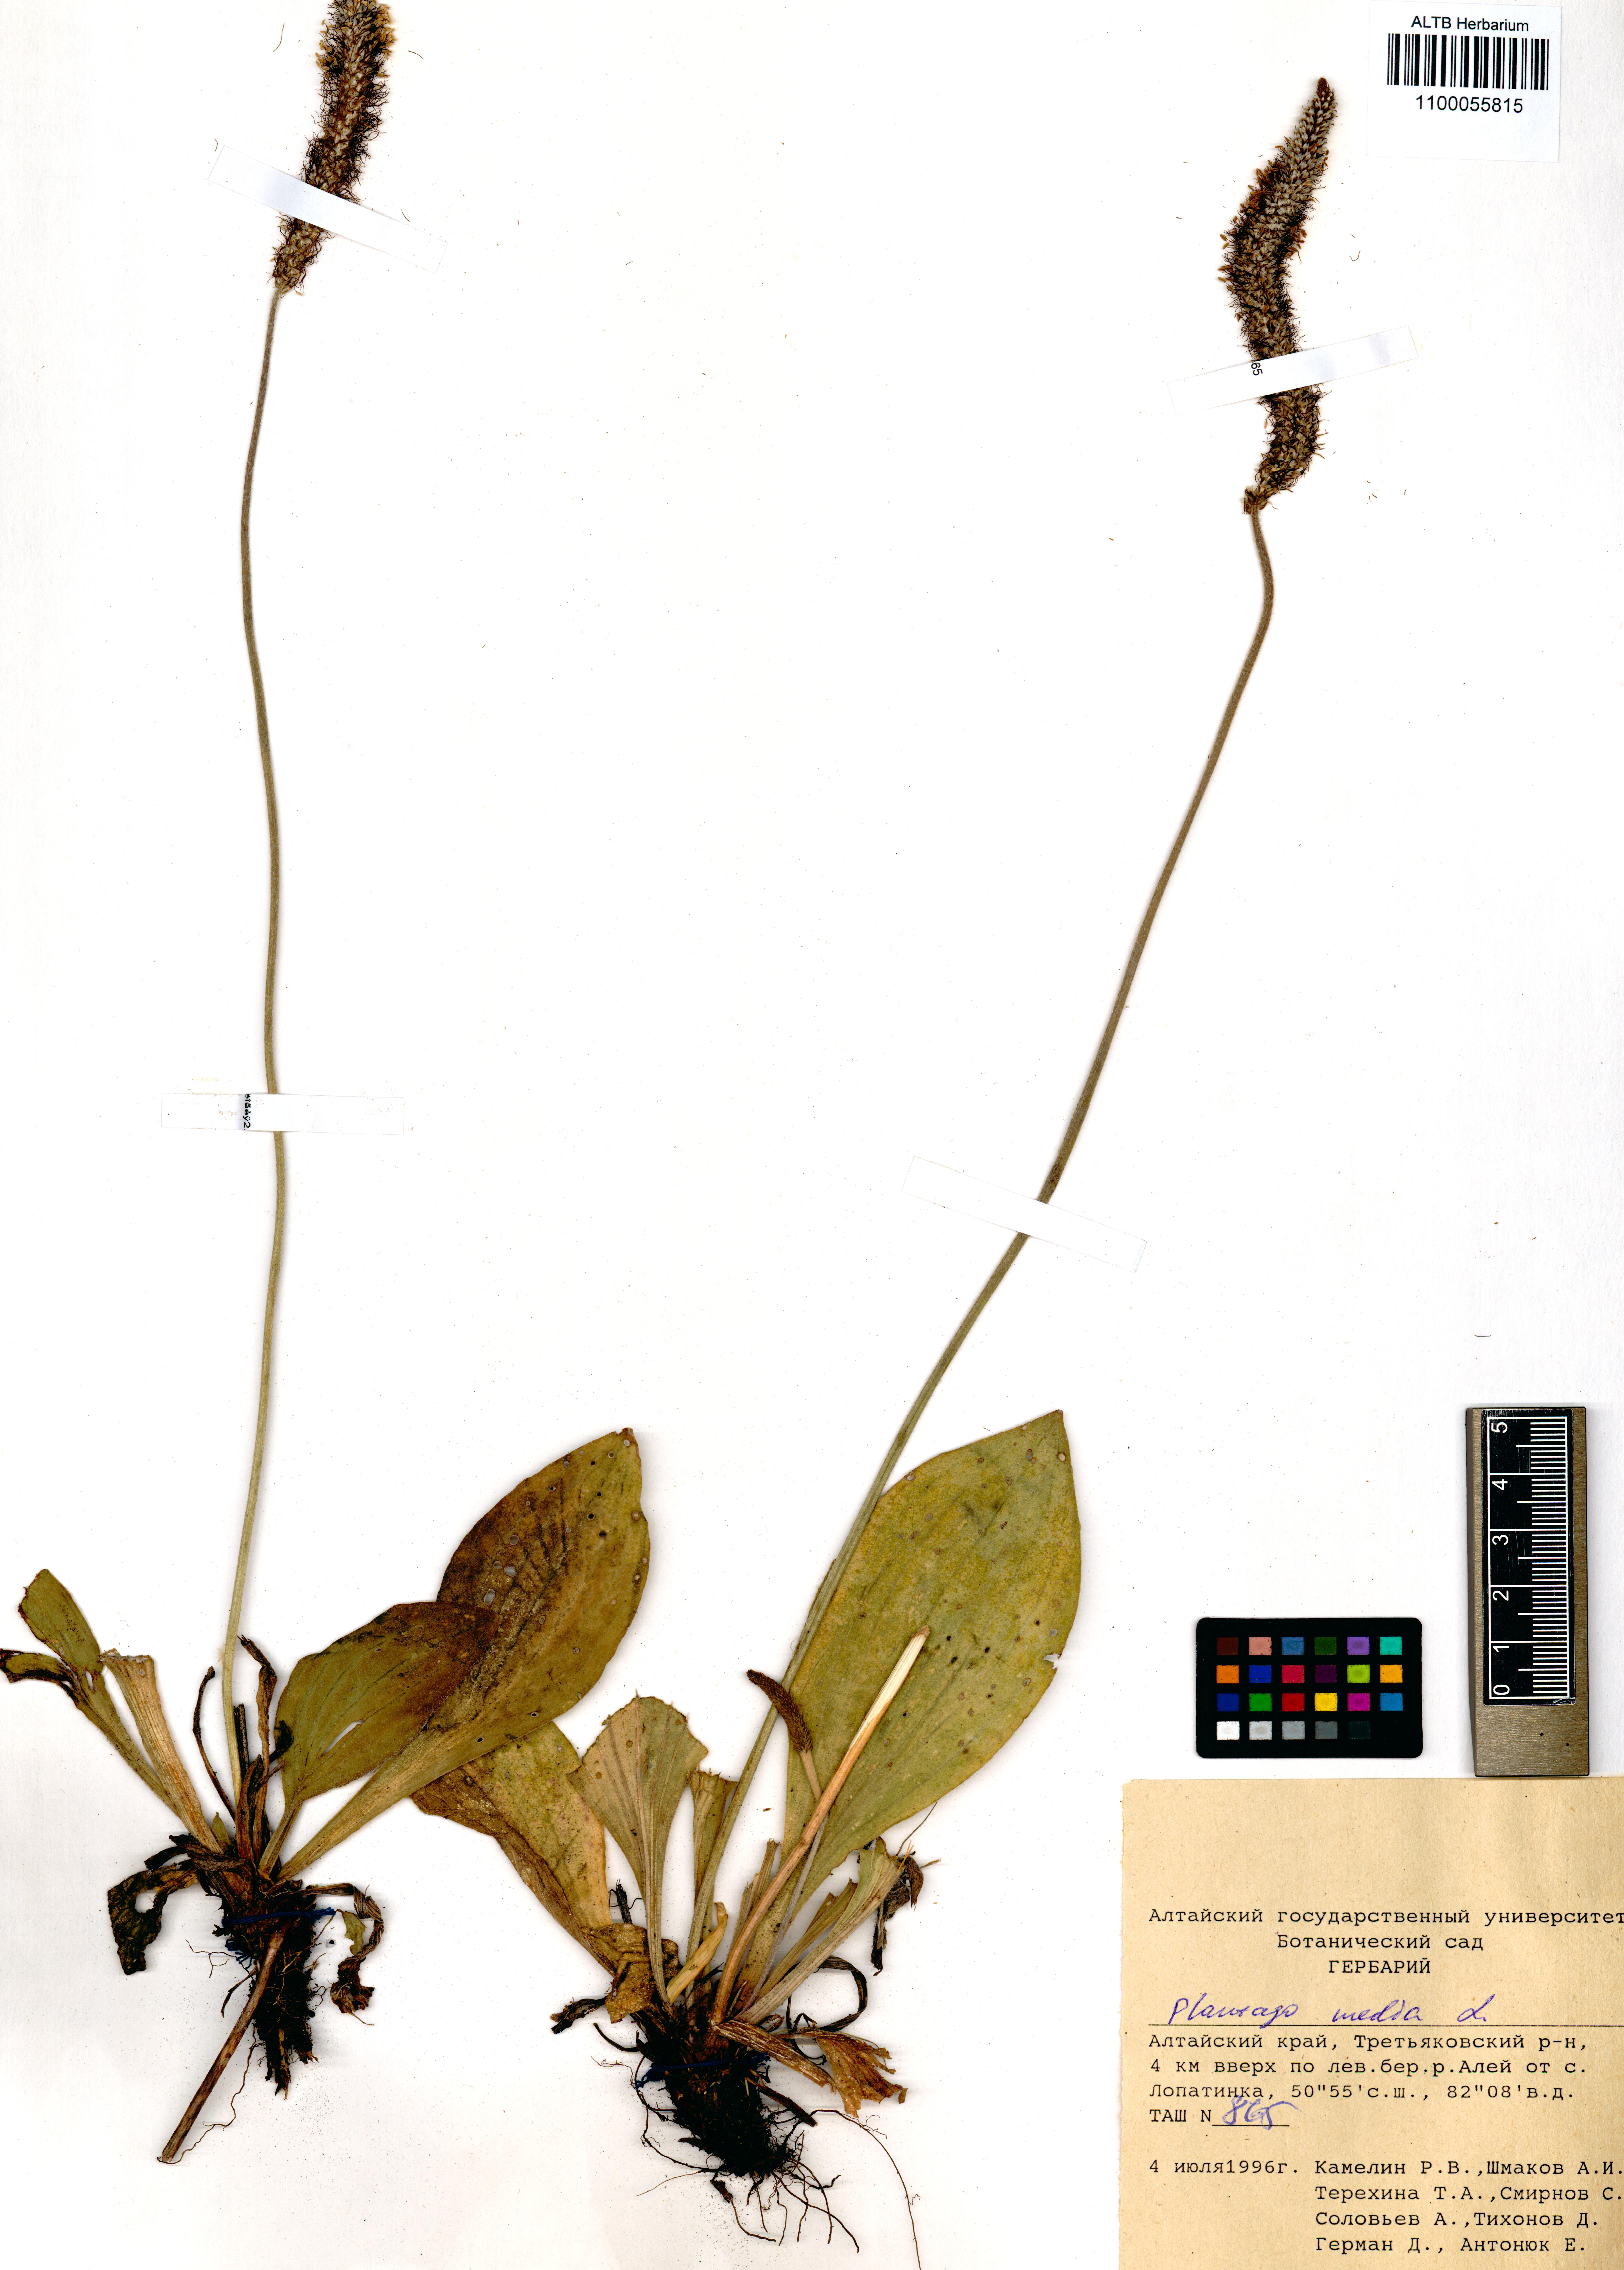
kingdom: Plantae
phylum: Tracheophyta
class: Magnoliopsida
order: Lamiales
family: Plantaginaceae
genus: Plantago
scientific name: Plantago media
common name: Hoary plantain
